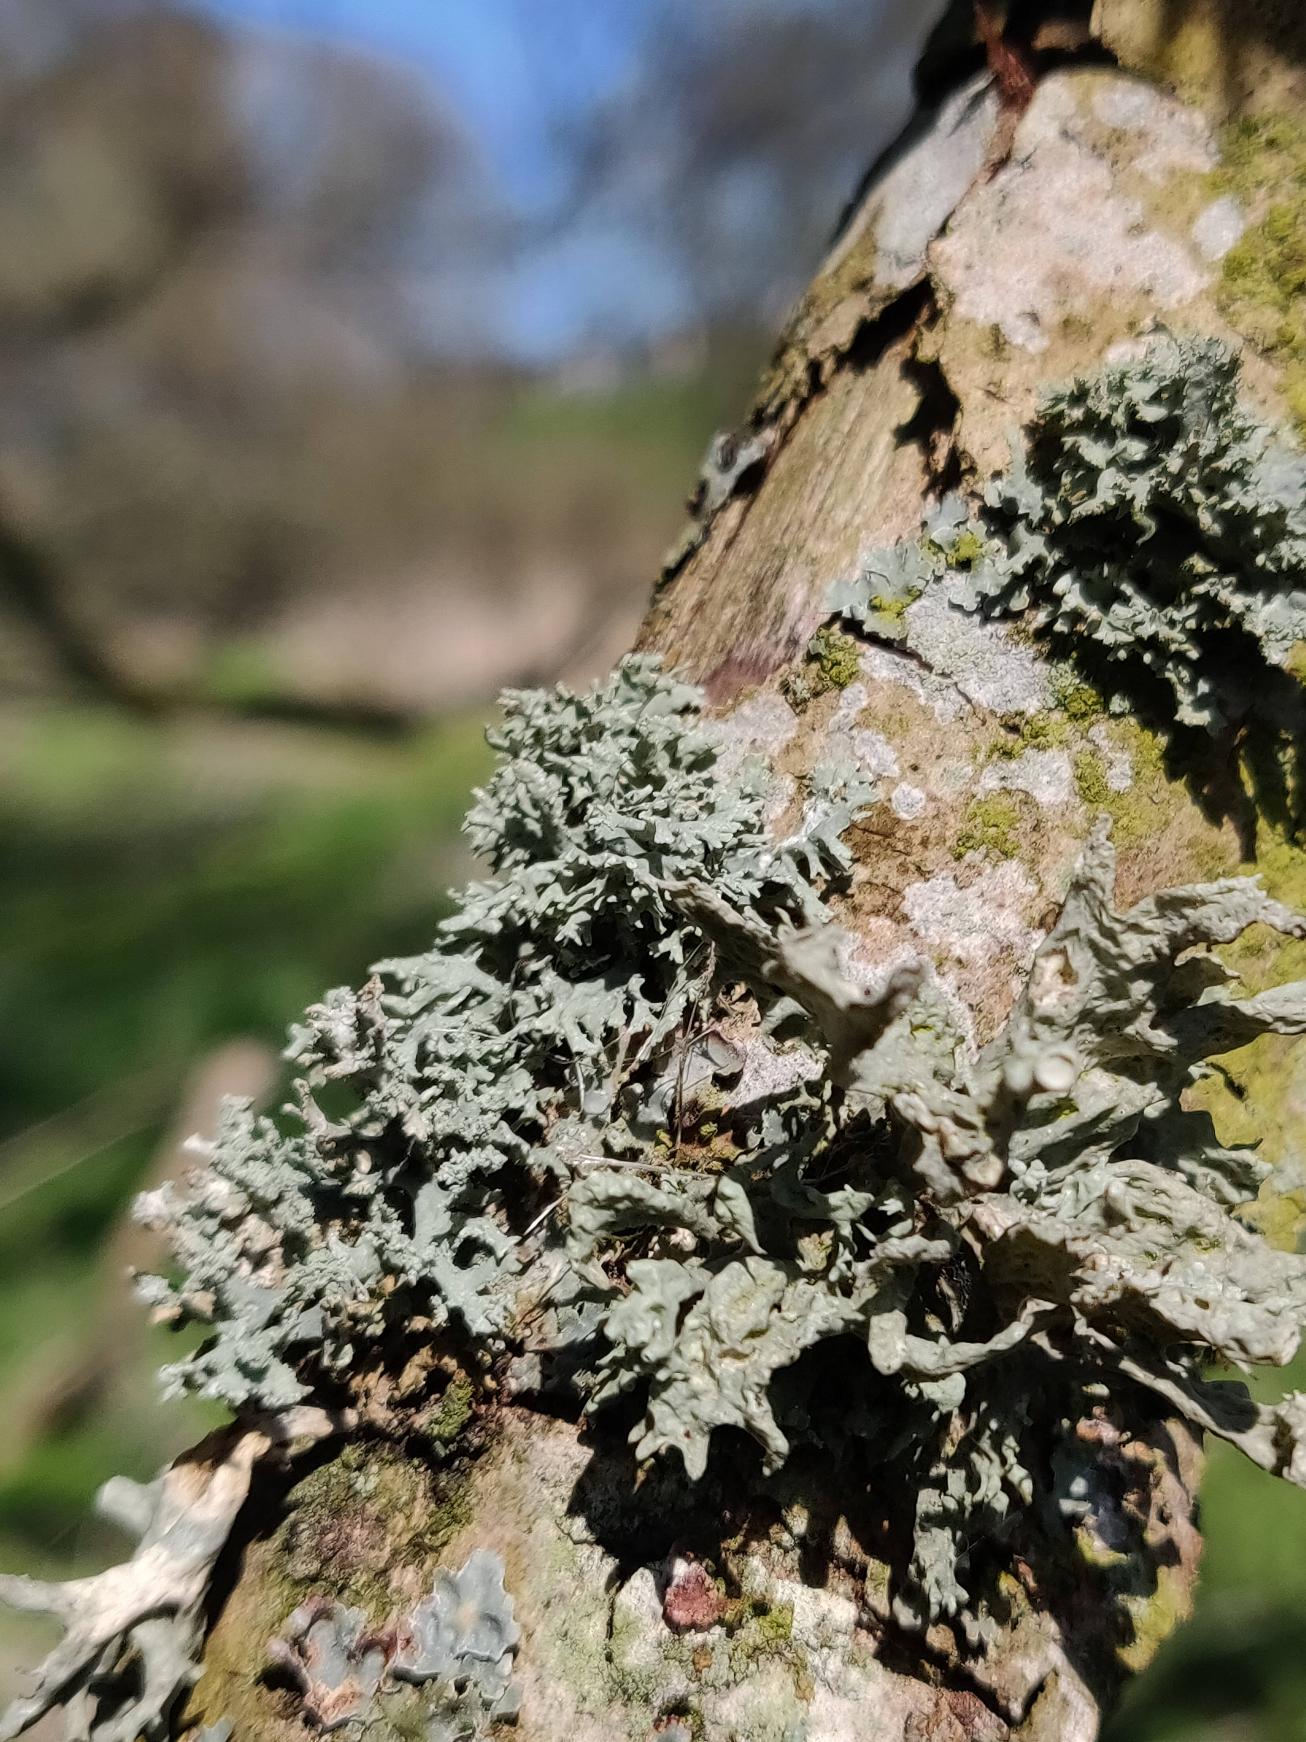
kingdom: Fungi
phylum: Ascomycota
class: Lecanoromycetes
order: Lecanorales
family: Ramalinaceae
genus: Ramalina
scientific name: Ramalina fastigiata
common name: Tue-grenlav
